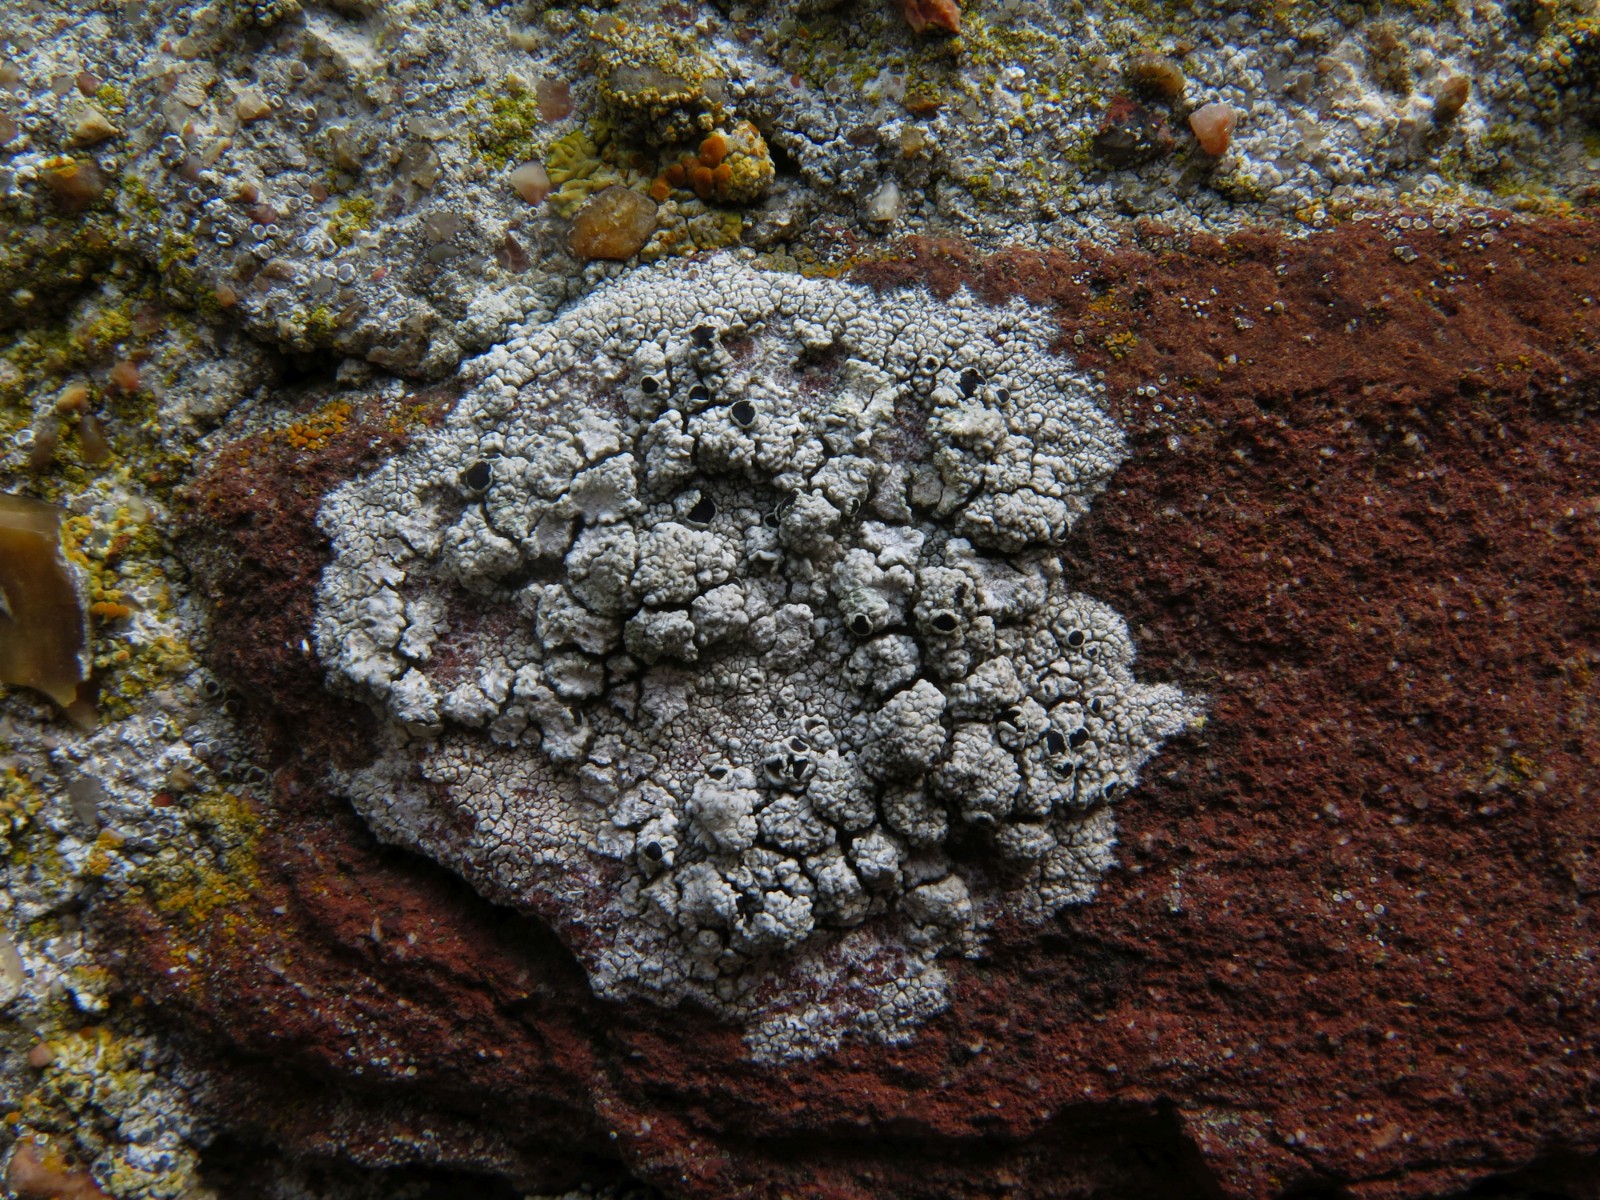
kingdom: Fungi
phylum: Ascomycota
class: Lecanoromycetes
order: Lecanorales
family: Tephromelataceae
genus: Tephromela
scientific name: Tephromela atra
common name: sortfrugtet kantskivelav
